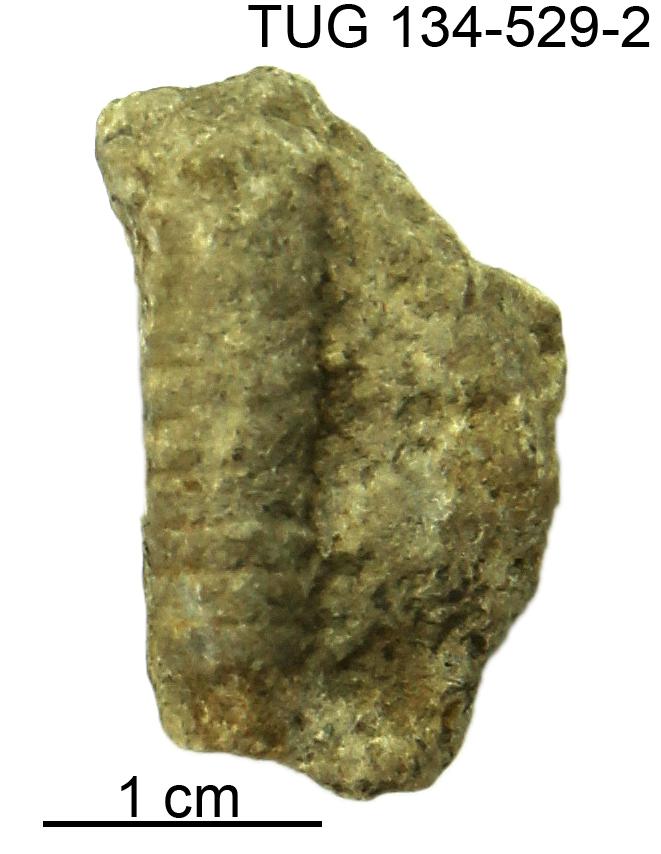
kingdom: Animalia
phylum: Mollusca
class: Cephalopoda
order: Orthocerida
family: Orthoceratidae
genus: Orthoceras
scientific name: Orthoceras
